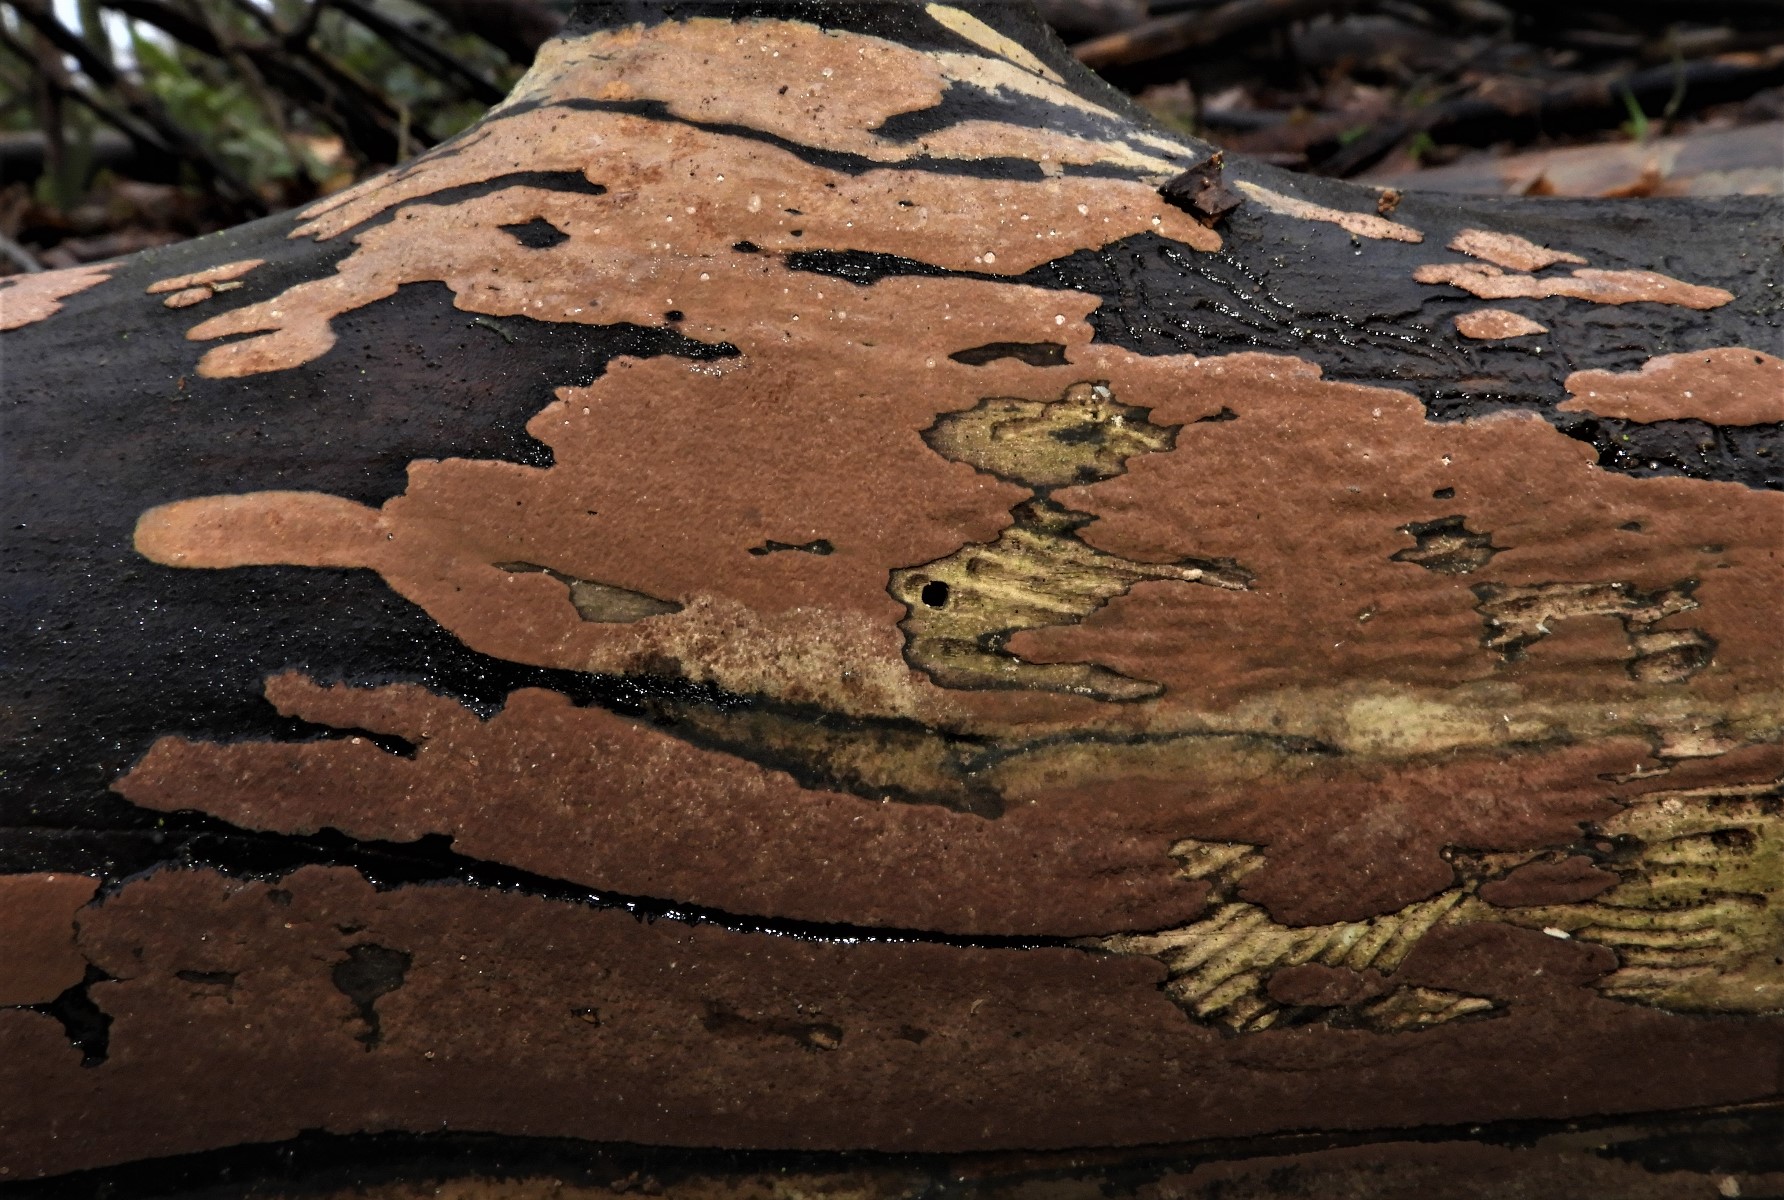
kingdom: Fungi
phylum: Ascomycota
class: Sordariomycetes
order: Xylariales
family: Hypoxylaceae
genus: Hypoxylon
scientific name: Hypoxylon petriniae
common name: nedsænket kulbær
